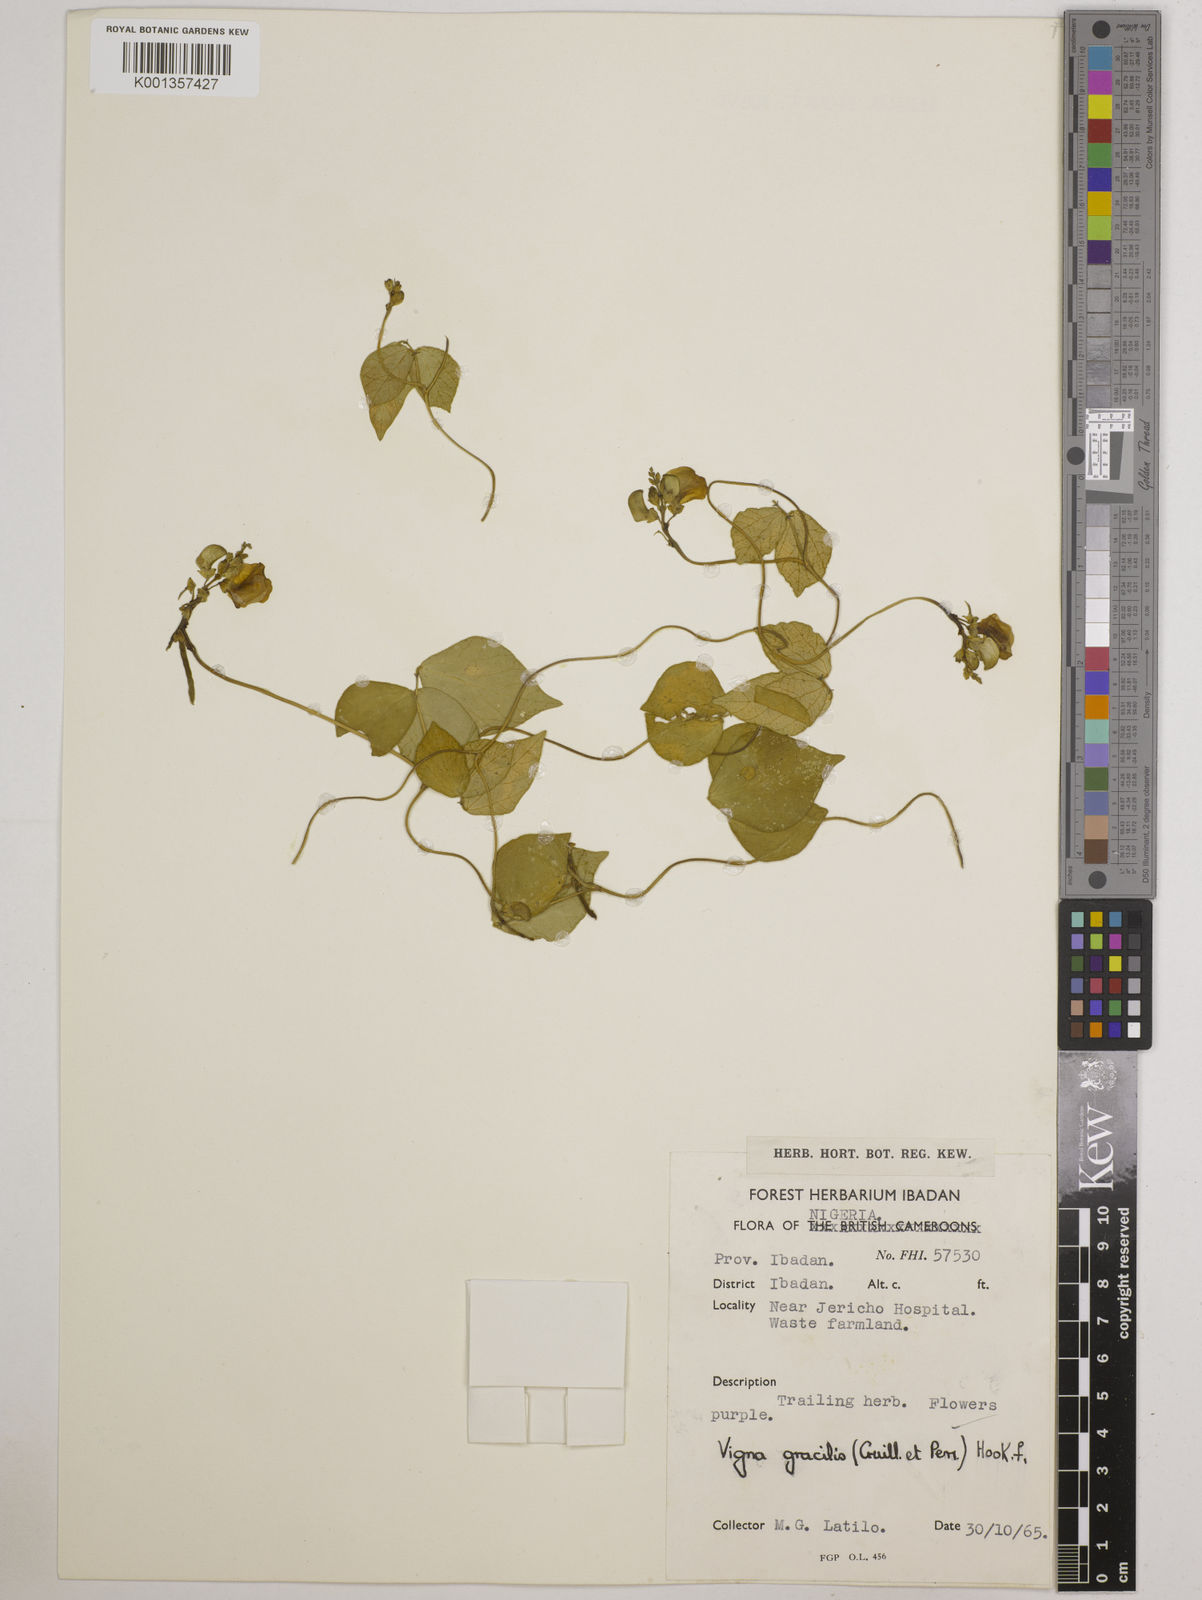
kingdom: Plantae
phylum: Tracheophyta
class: Magnoliopsida
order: Fabales
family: Fabaceae
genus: Vigna
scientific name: Vigna gracilis
